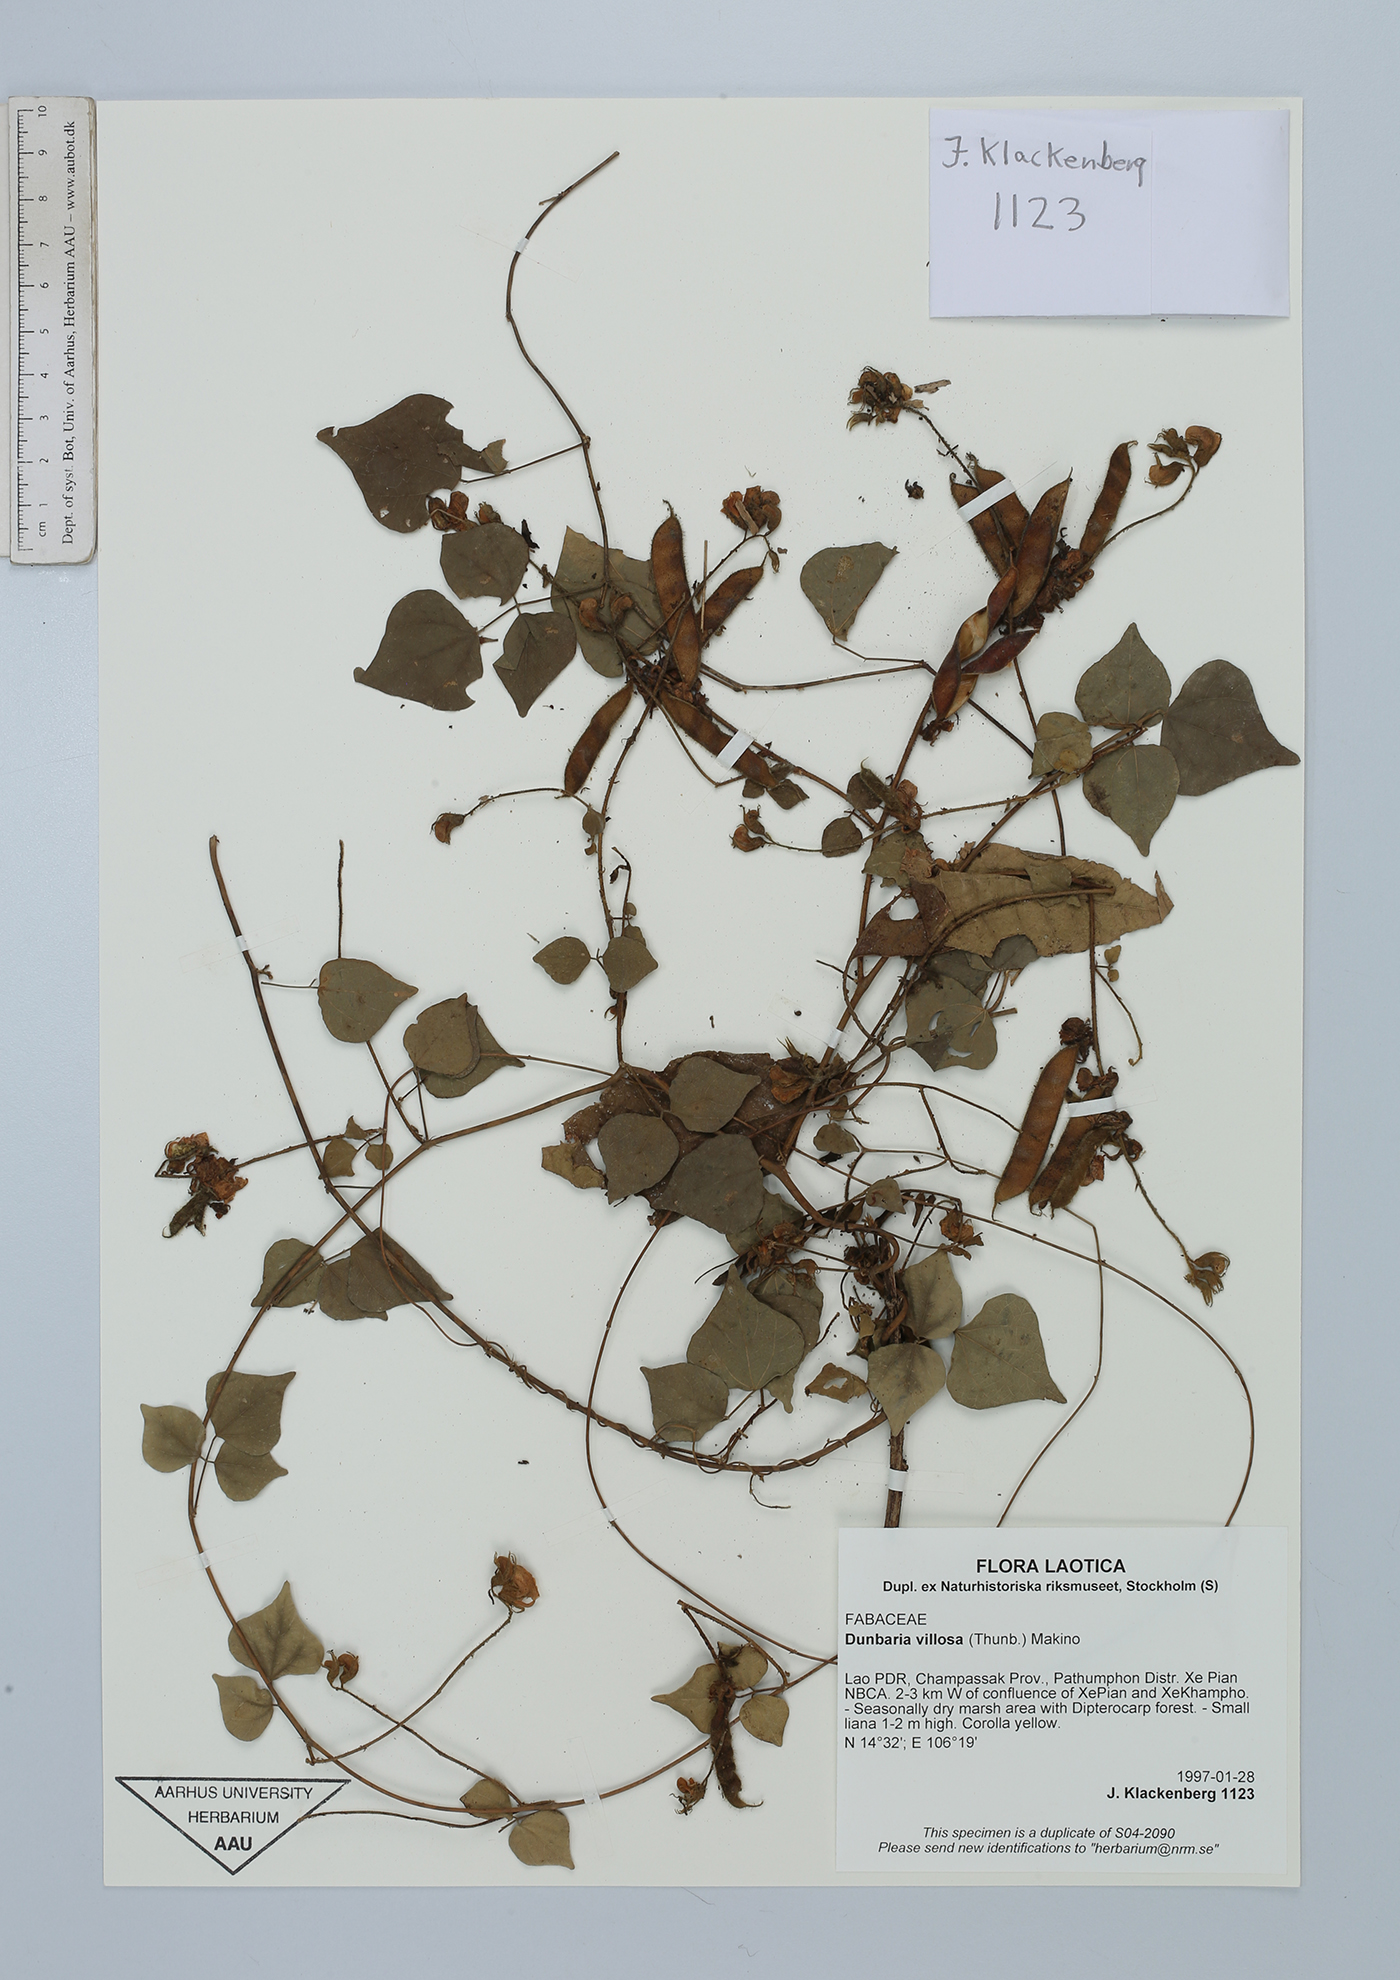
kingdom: Plantae
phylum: Tracheophyta
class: Magnoliopsida
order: Fabales
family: Fabaceae
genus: Dunbaria
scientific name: Dunbaria villosa
